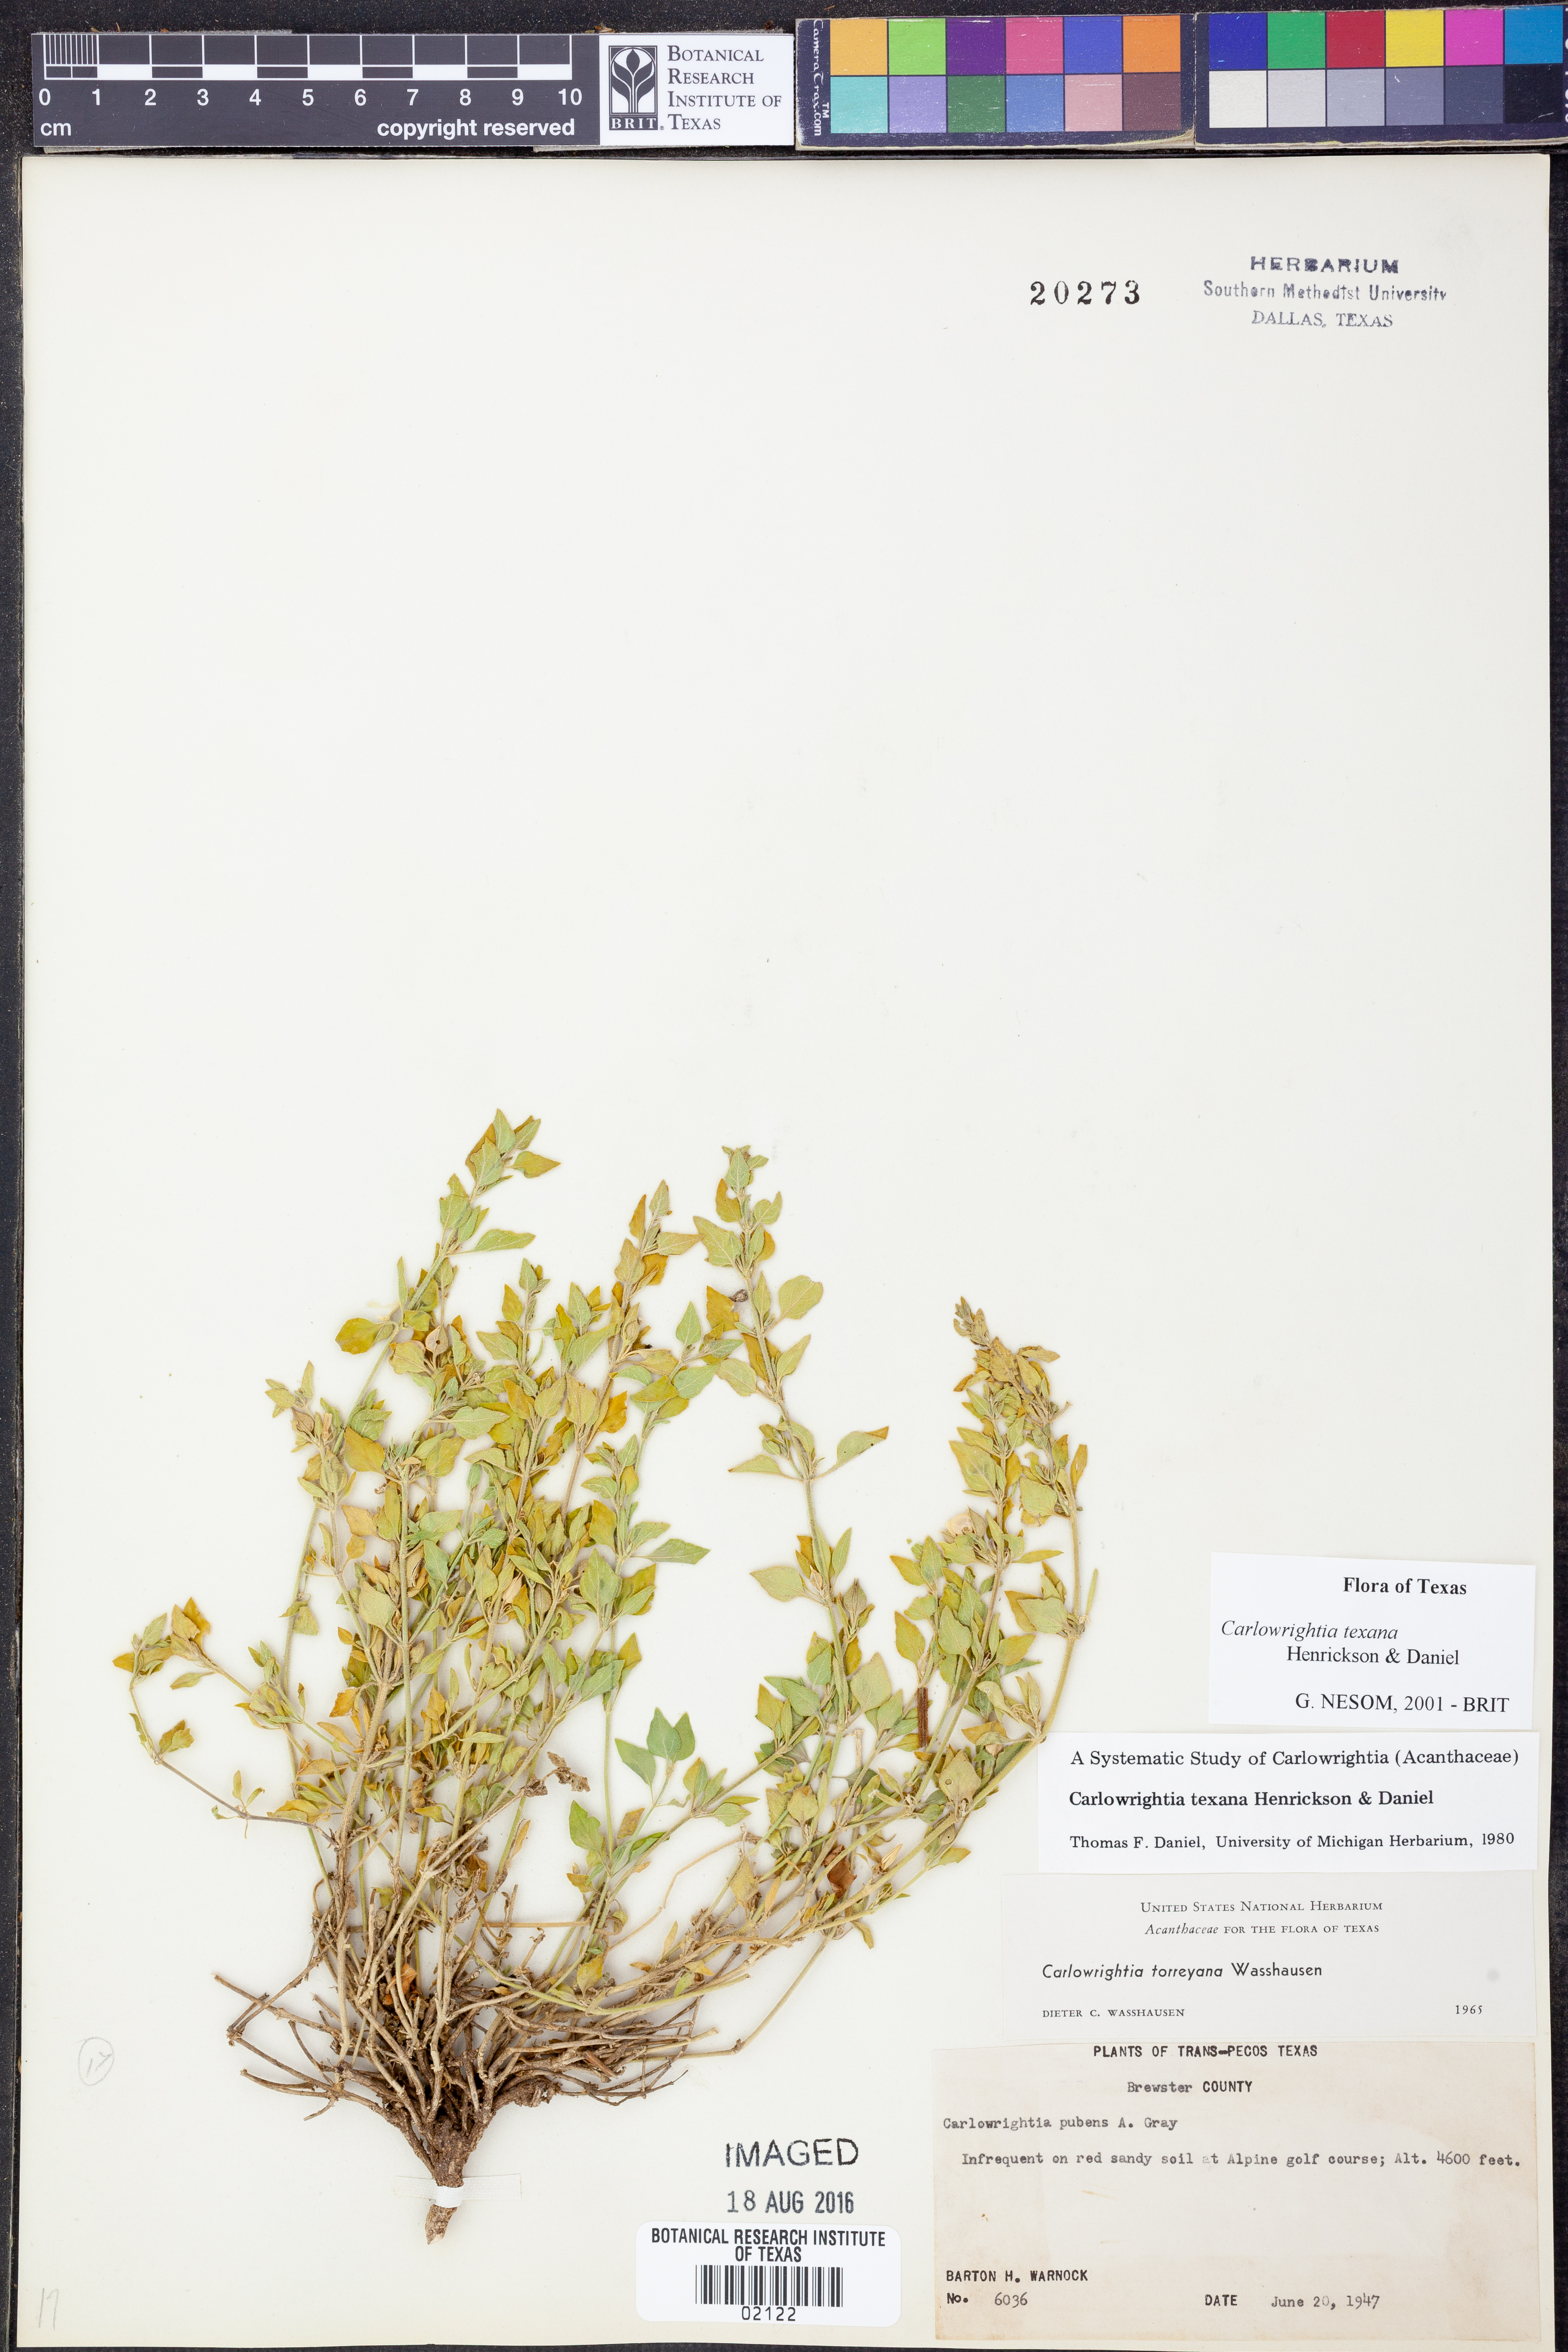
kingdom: Plantae
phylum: Tracheophyta
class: Magnoliopsida
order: Lamiales
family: Acanthaceae
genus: Carlowrightia
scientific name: Carlowrightia texana
